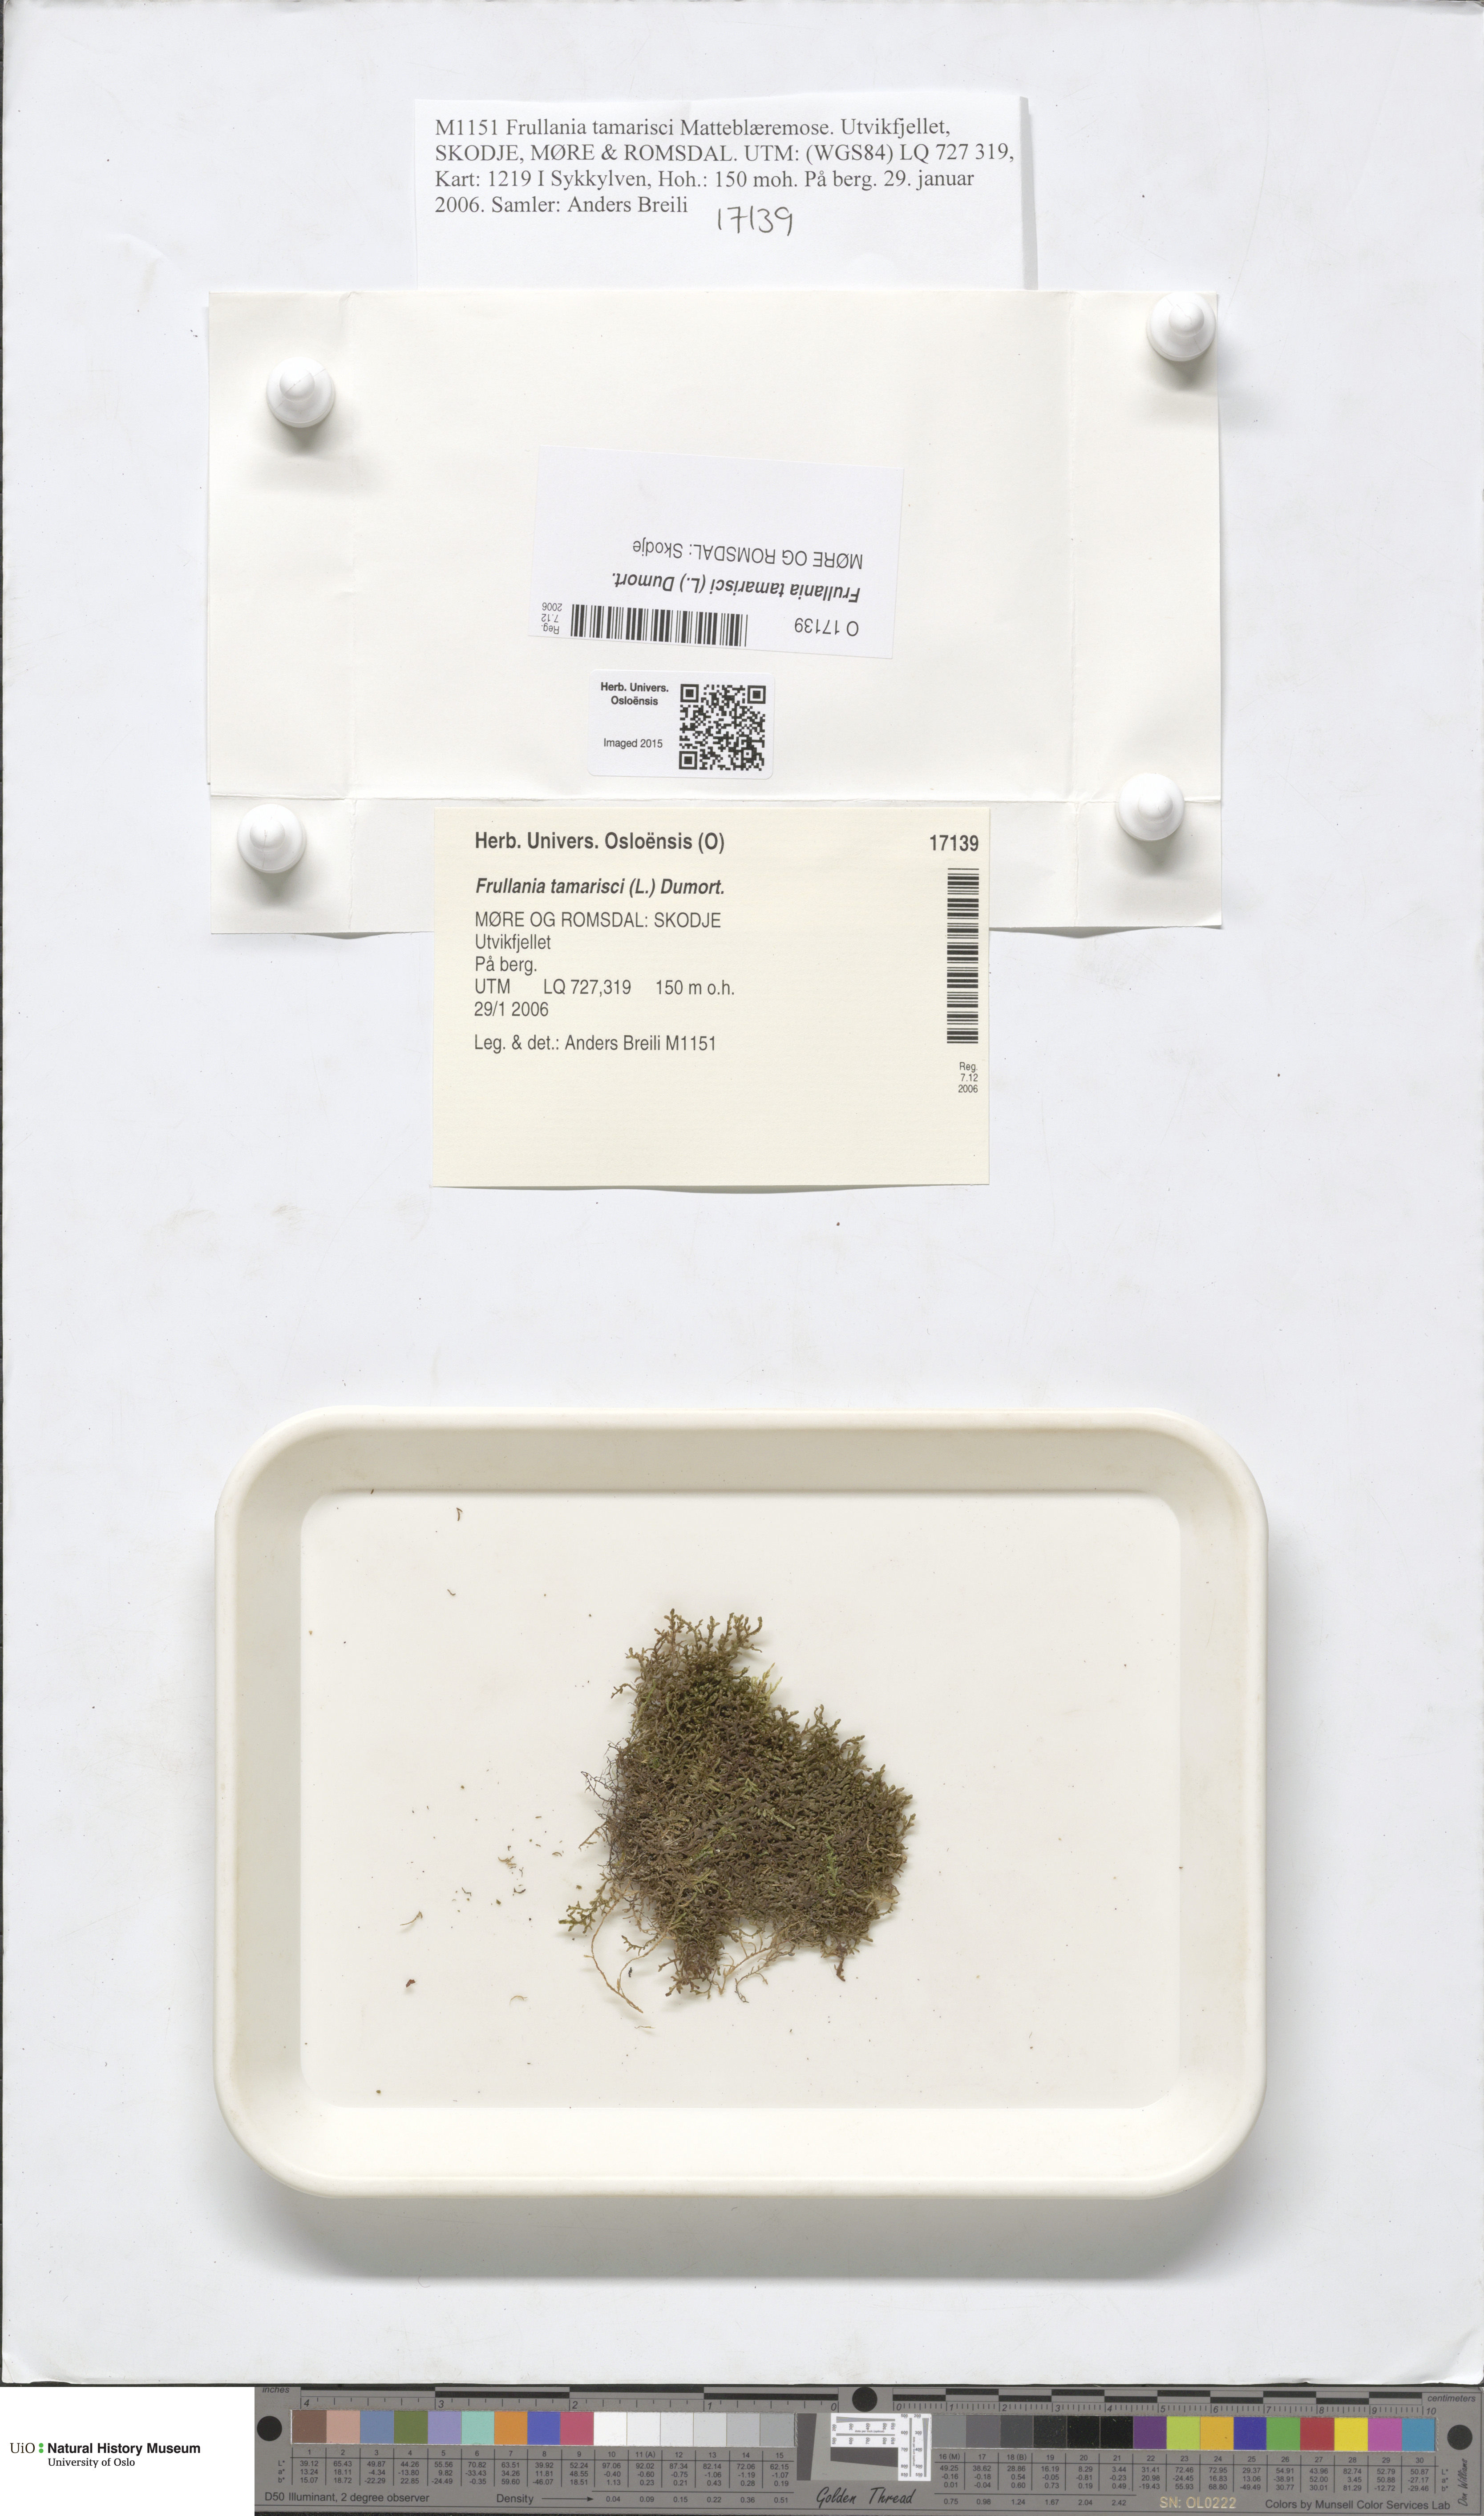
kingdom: Plantae
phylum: Marchantiophyta
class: Jungermanniopsida
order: Porellales
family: Frullaniaceae
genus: Frullania
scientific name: Frullania tamarisci
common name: Tamarisk scalewort
